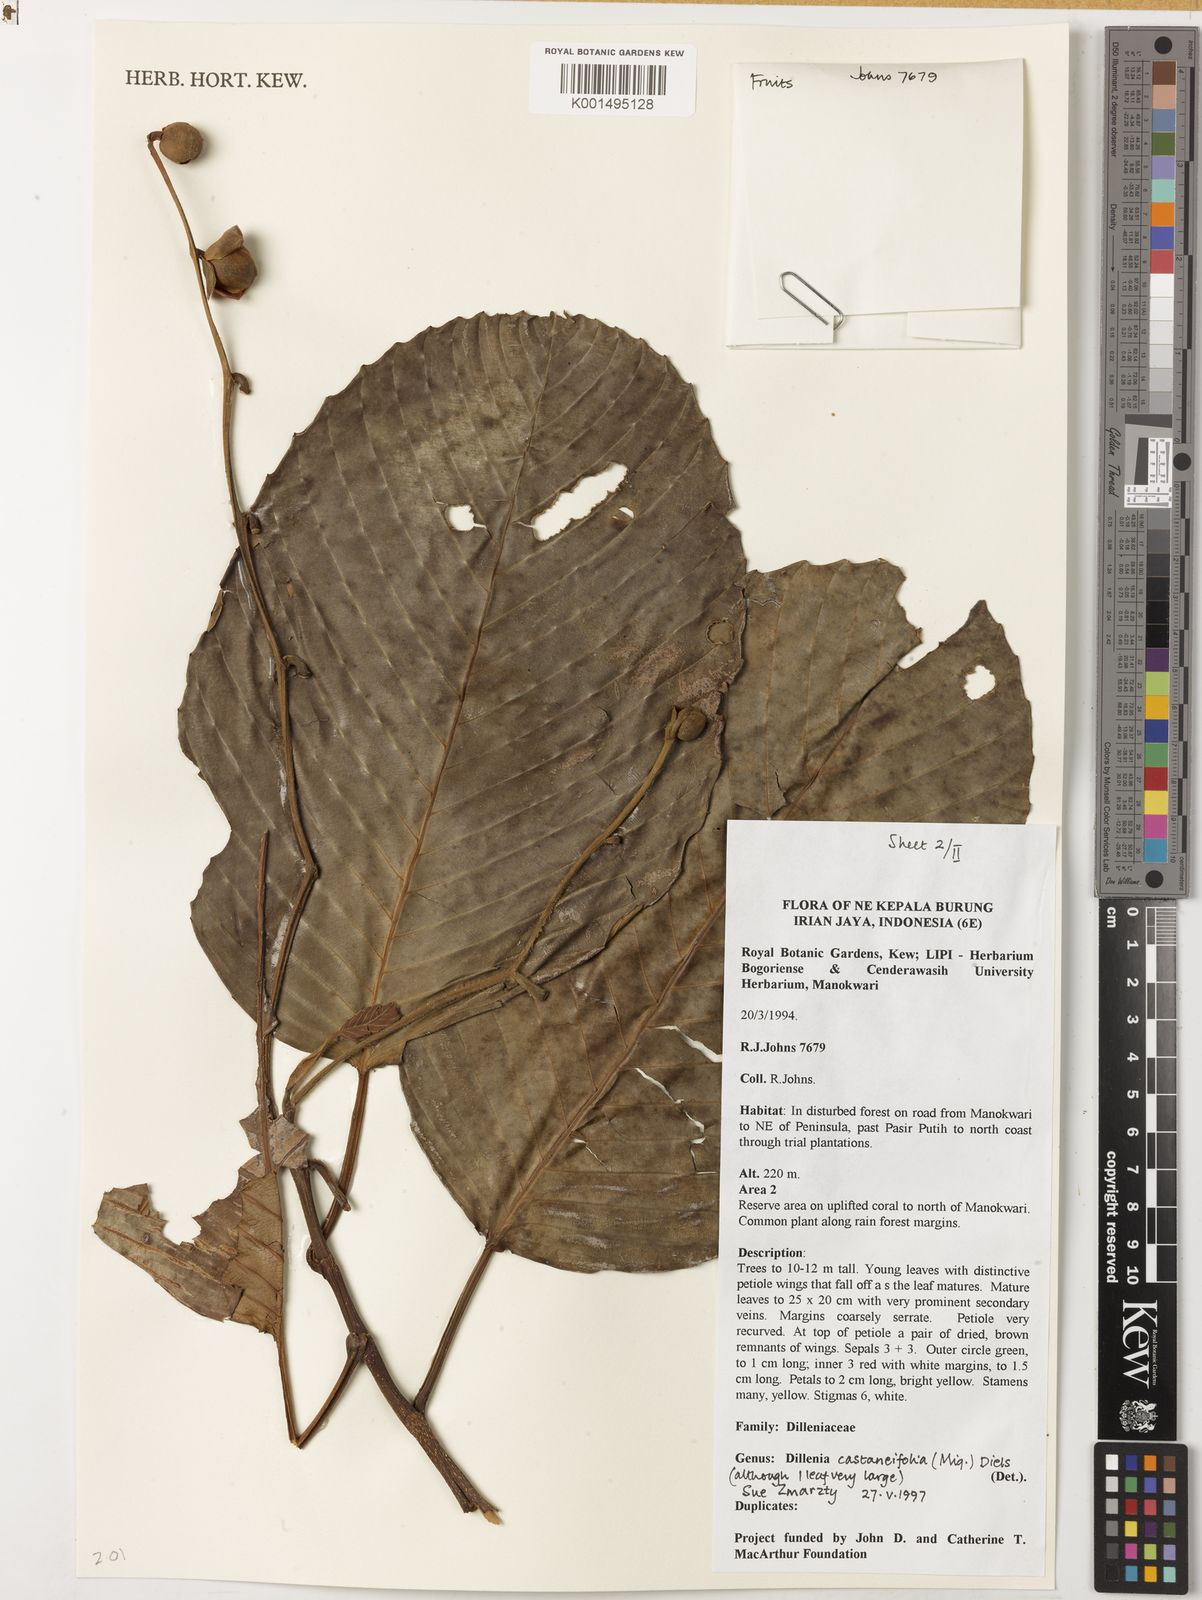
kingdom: Plantae
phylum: Tracheophyta
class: Magnoliopsida
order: Dilleniales
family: Dilleniaceae
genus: Dillenia
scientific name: Dillenia castaneifolia
